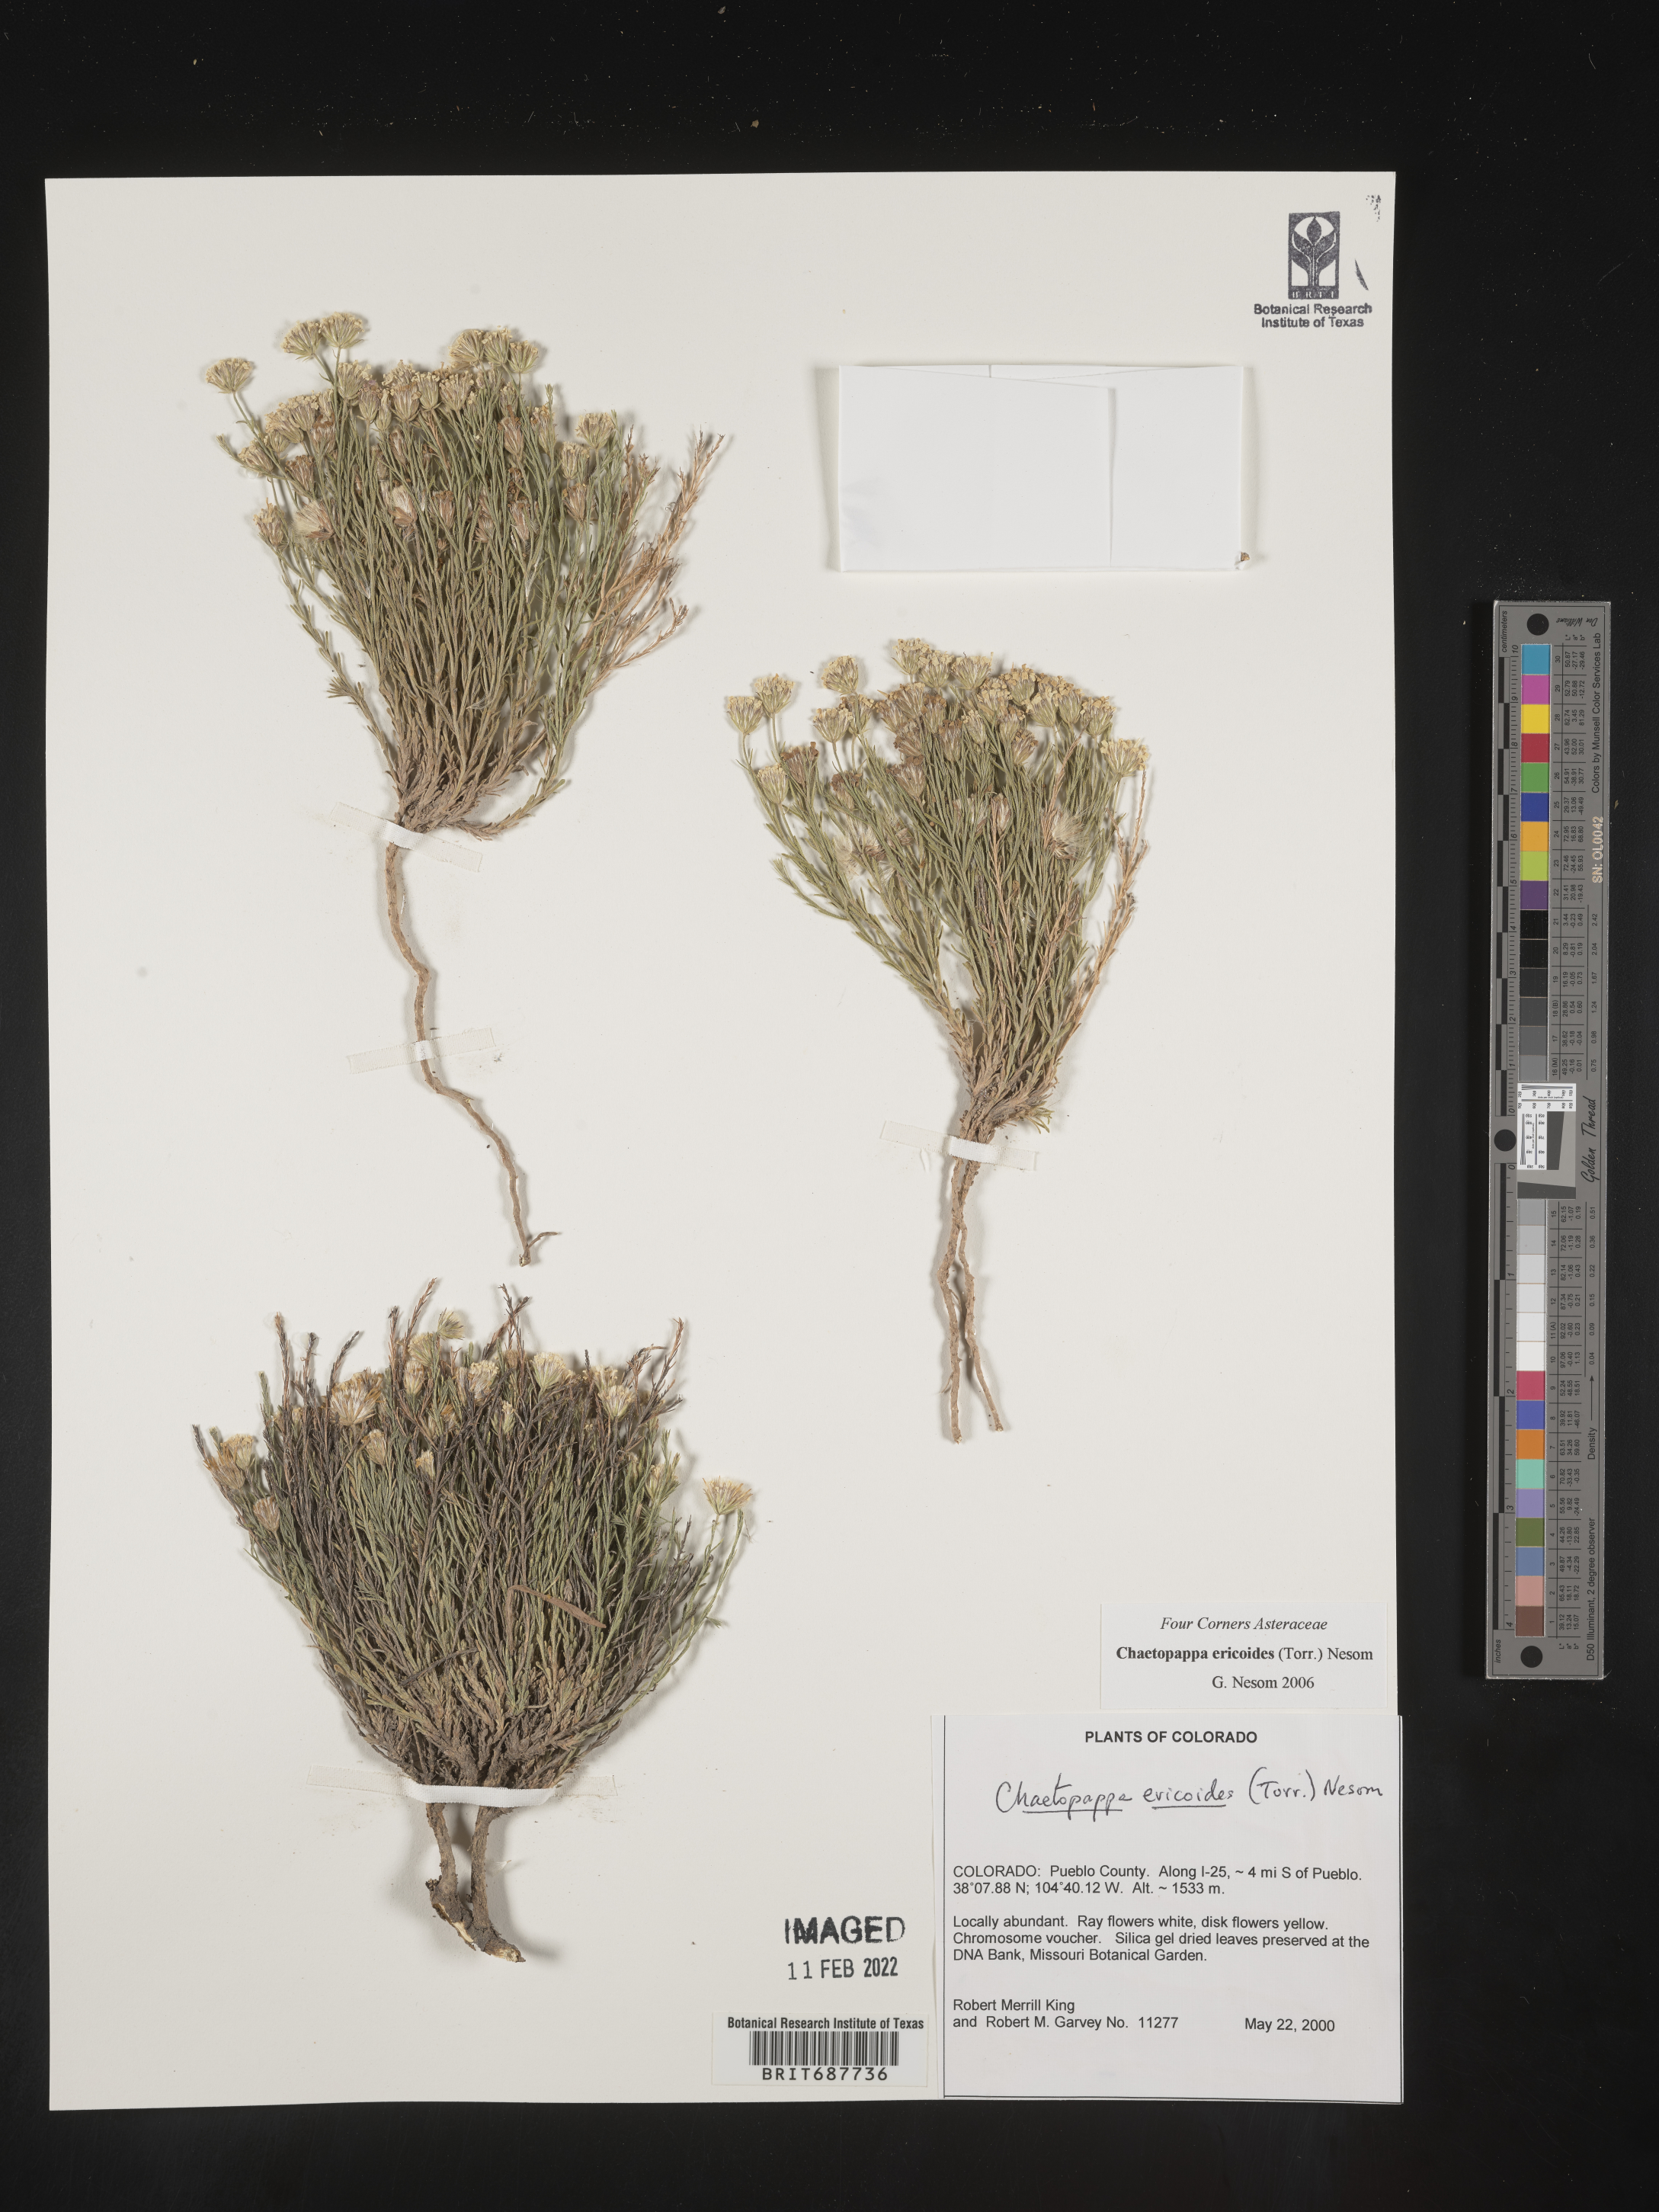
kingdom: Plantae
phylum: Tracheophyta
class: Magnoliopsida
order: Asterales
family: Asteraceae
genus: Chaetopappa
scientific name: Chaetopappa ericoides
